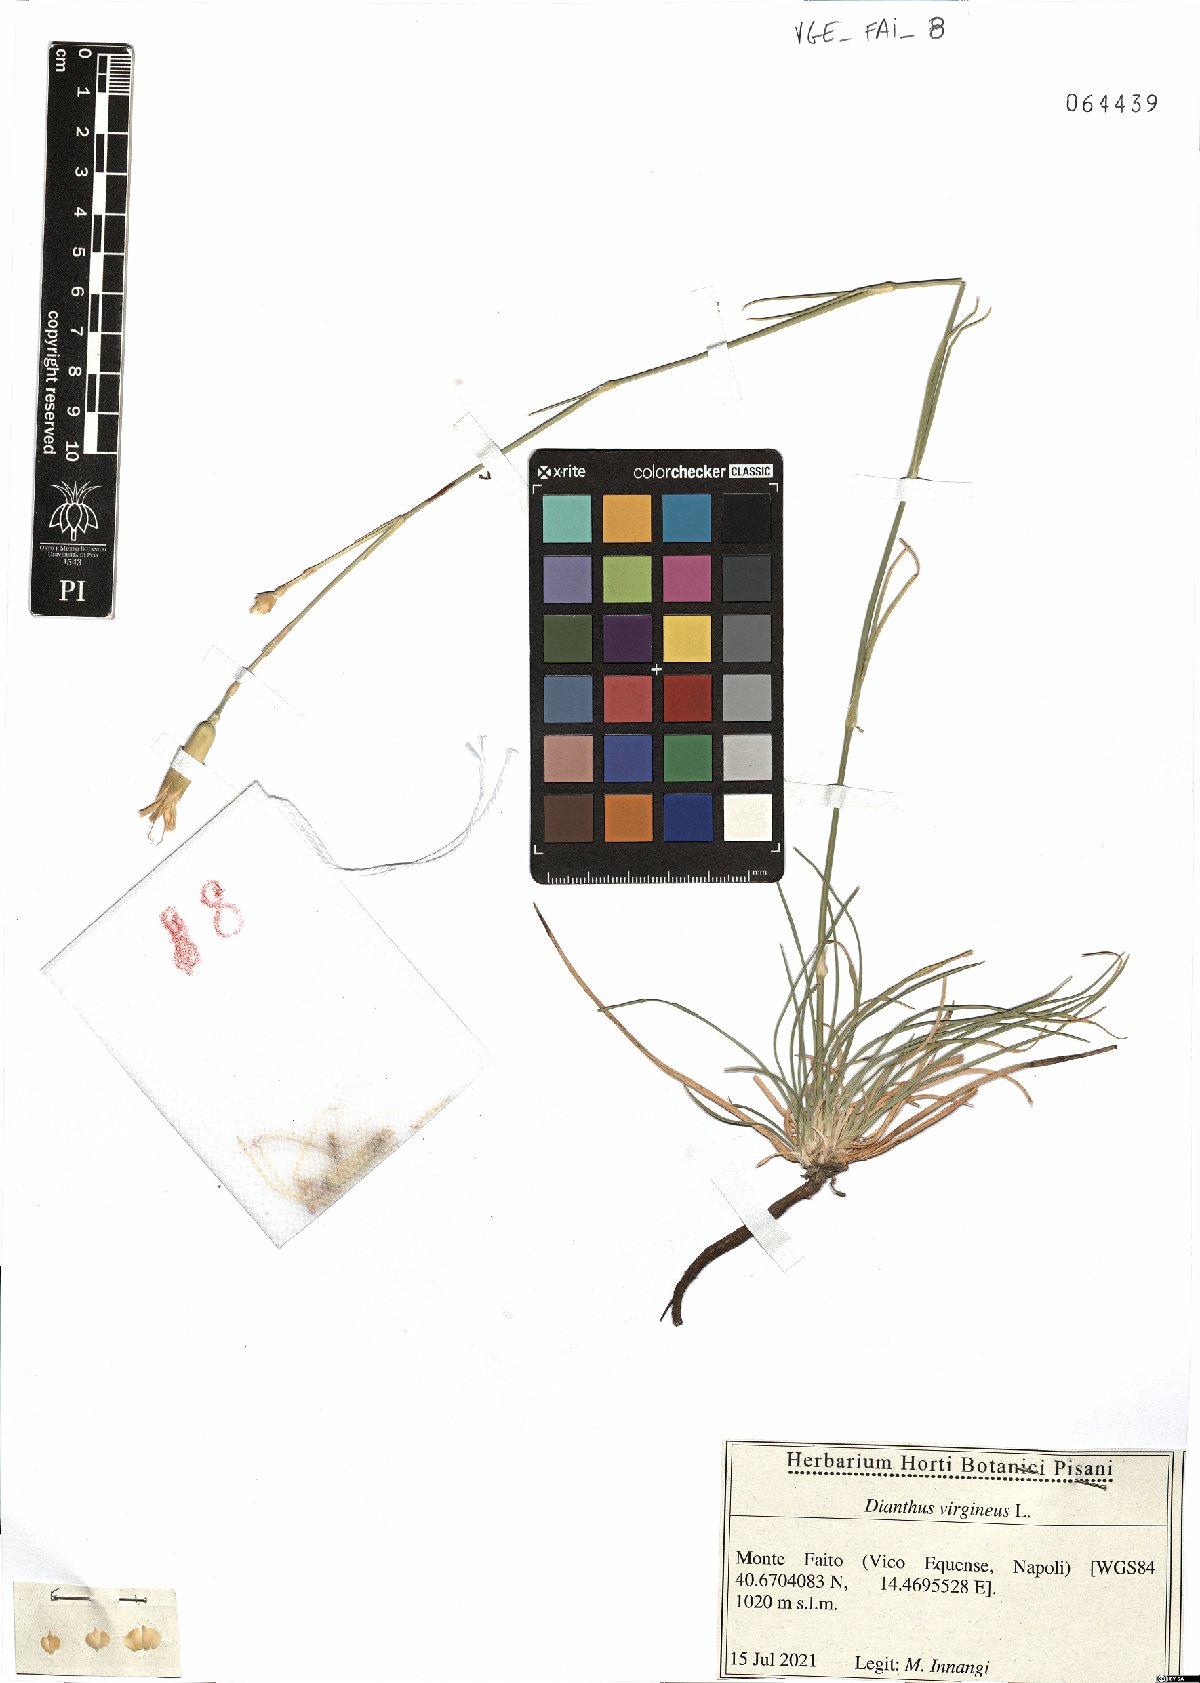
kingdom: Plantae
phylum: Tracheophyta
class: Magnoliopsida
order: Caryophyllales
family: Caryophyllaceae
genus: Dianthus
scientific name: Dianthus virgineus
